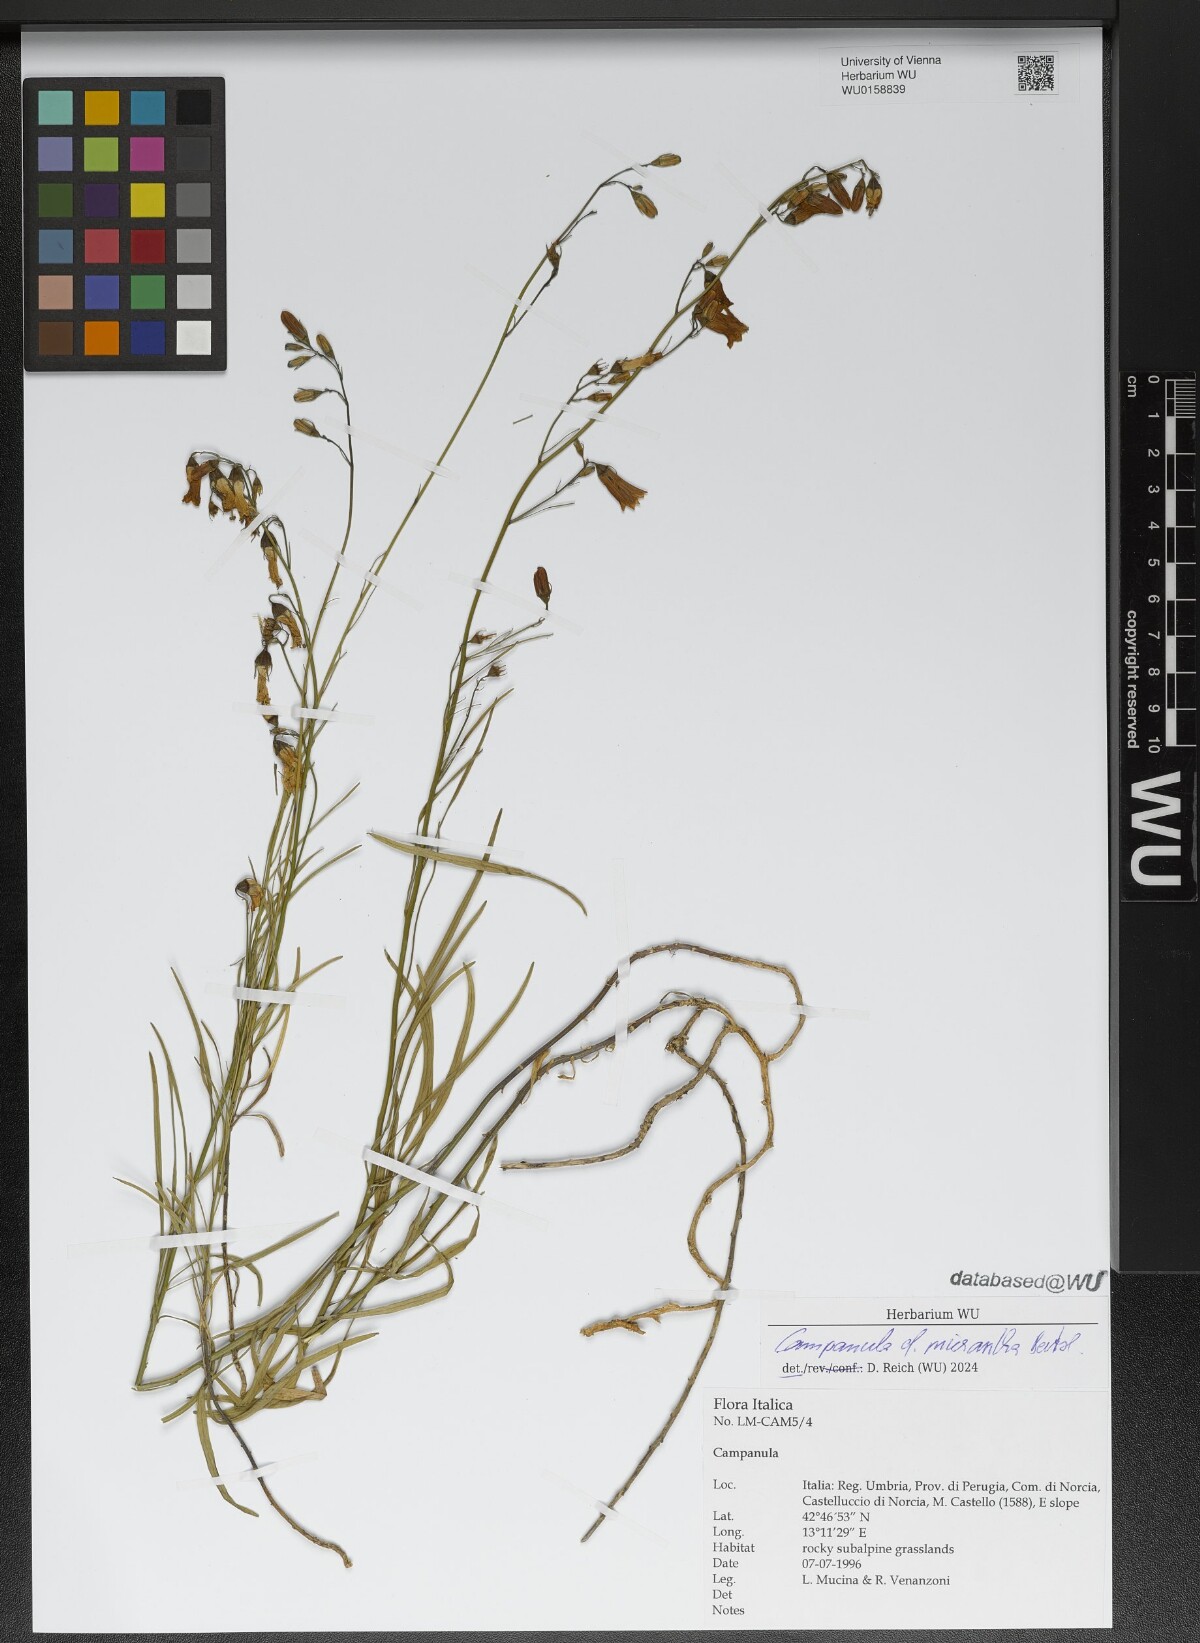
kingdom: Plantae
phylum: Tracheophyta
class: Magnoliopsida
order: Asterales
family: Campanulaceae
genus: Campanula
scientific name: Campanula micrantha
